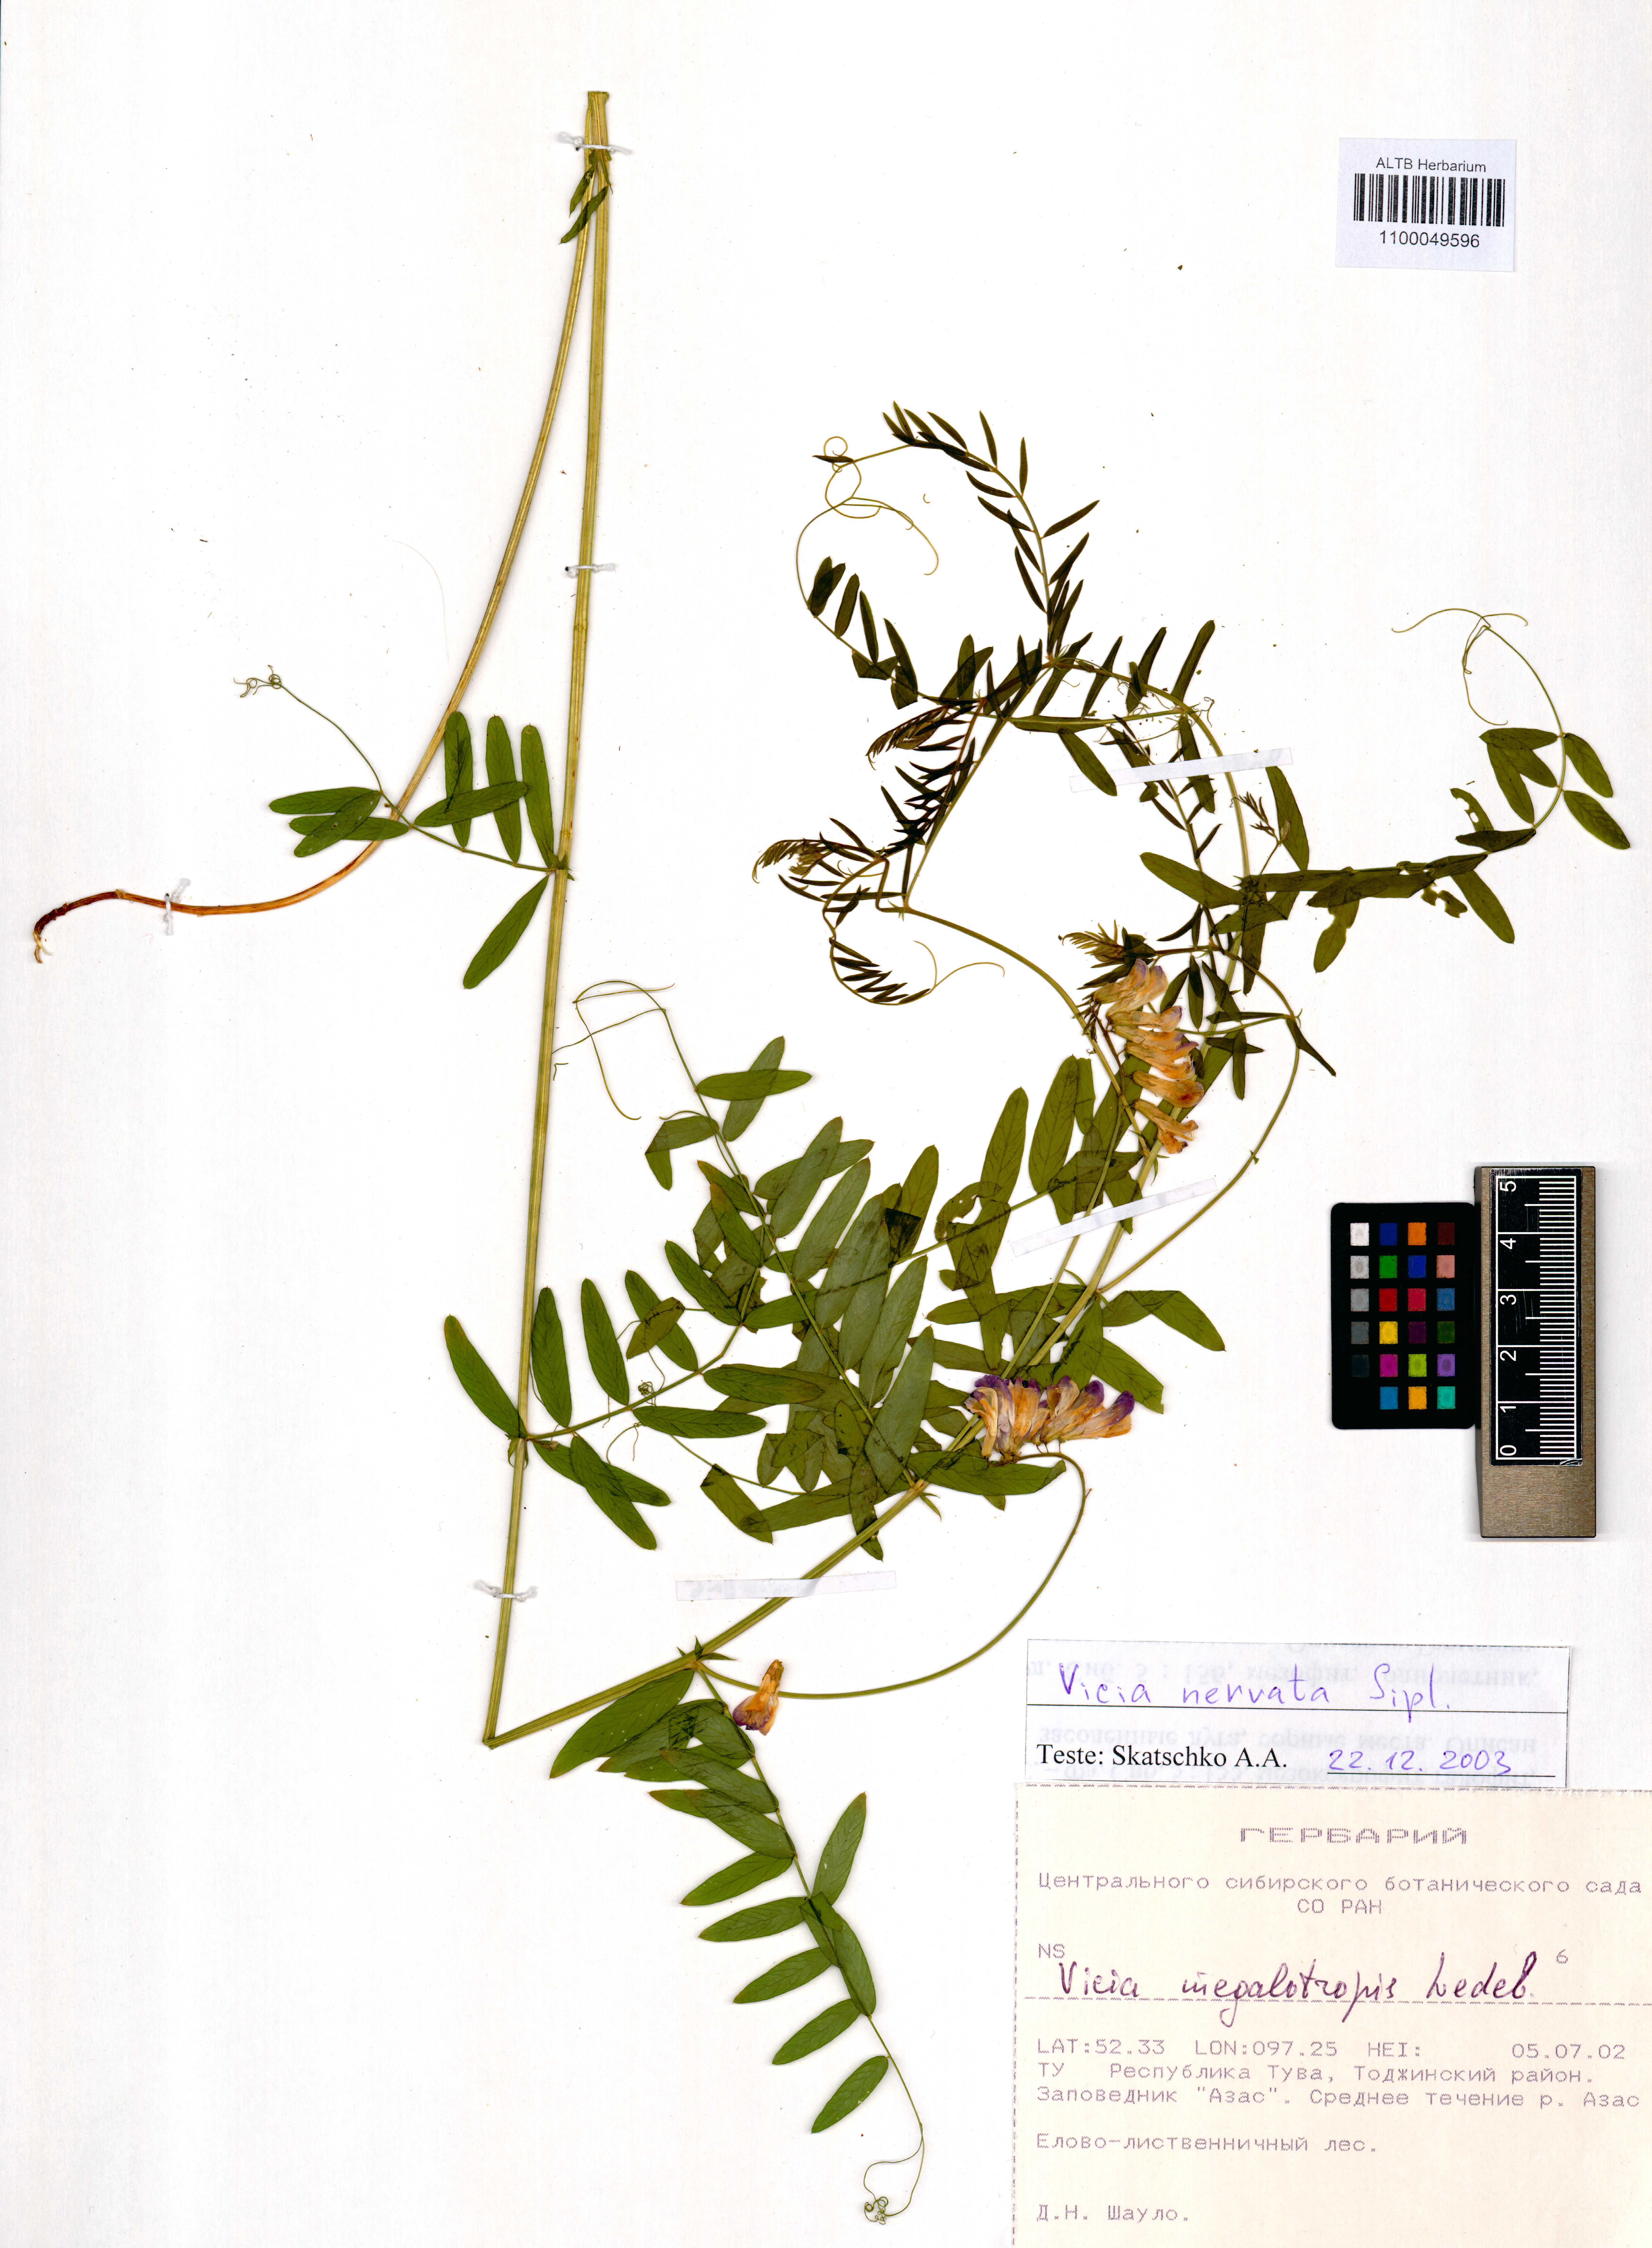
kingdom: Plantae
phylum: Tracheophyta
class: Magnoliopsida
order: Fabales
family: Fabaceae
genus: Vicia
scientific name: Vicia multicaulis
